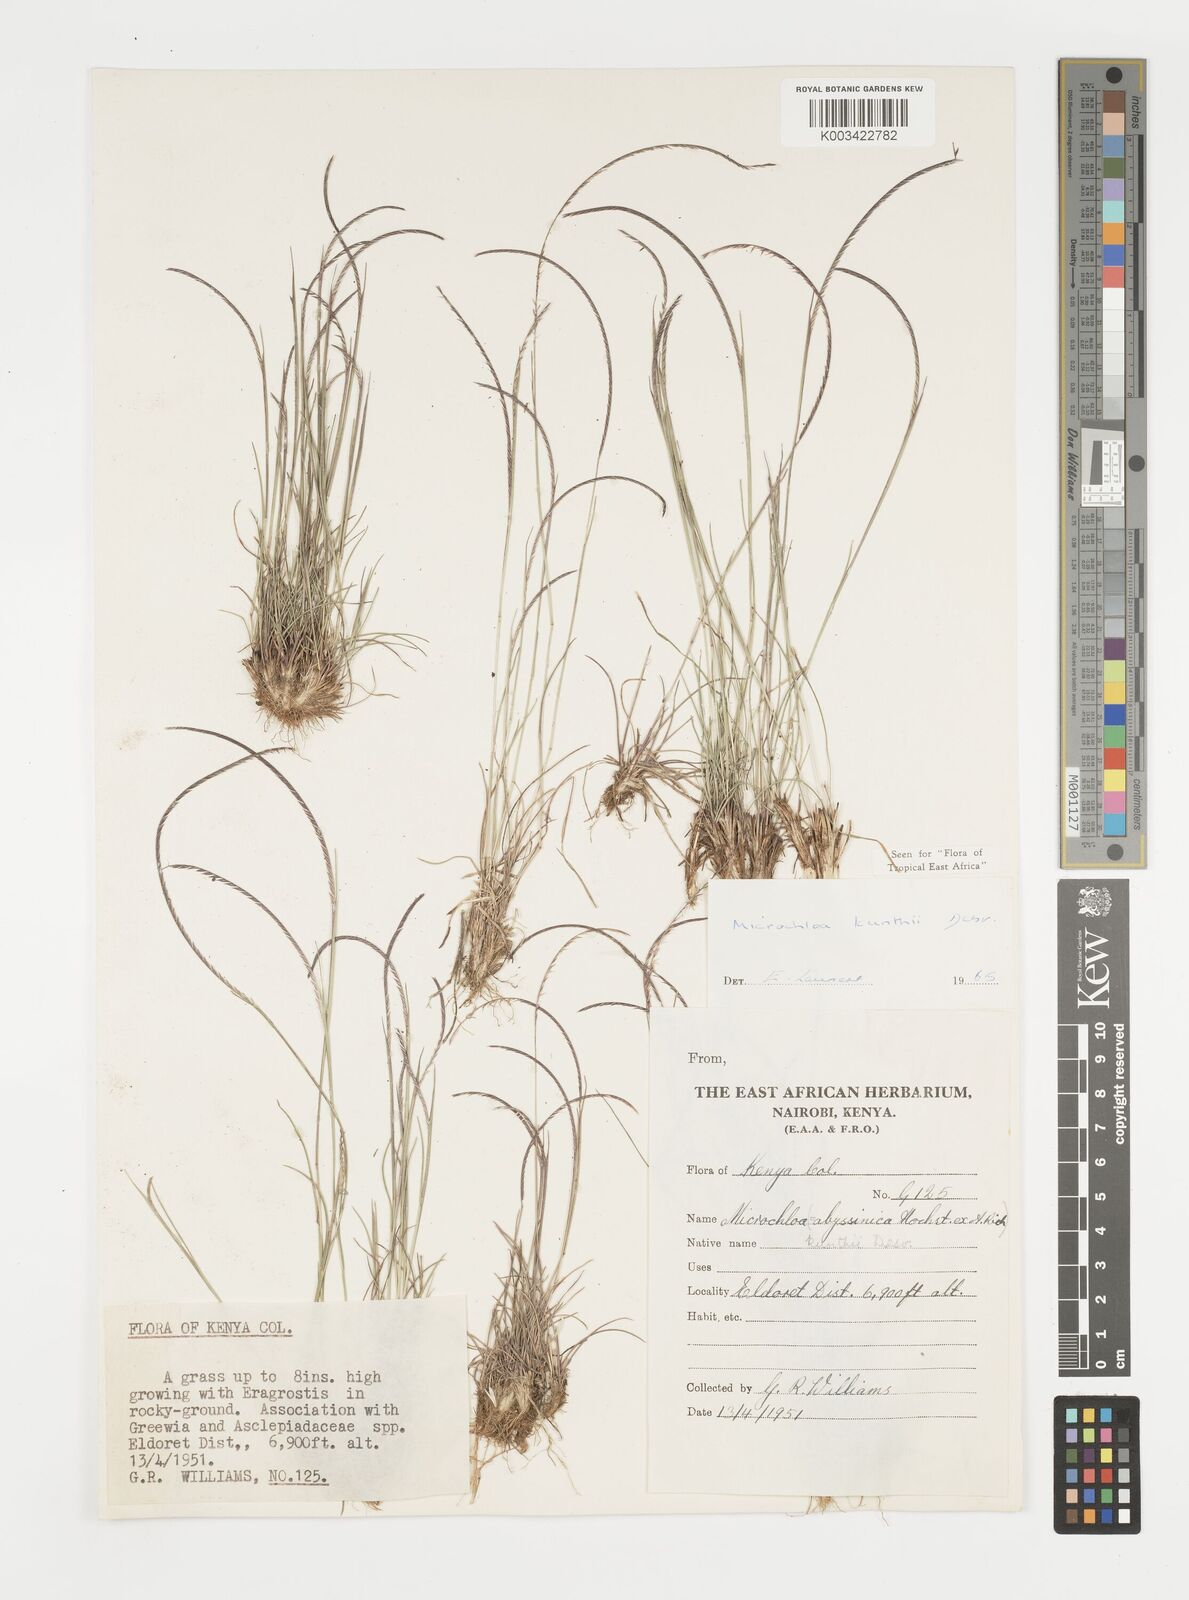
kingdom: Plantae
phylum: Tracheophyta
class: Liliopsida
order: Poales
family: Poaceae
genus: Microchloa
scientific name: Microchloa kunthii
